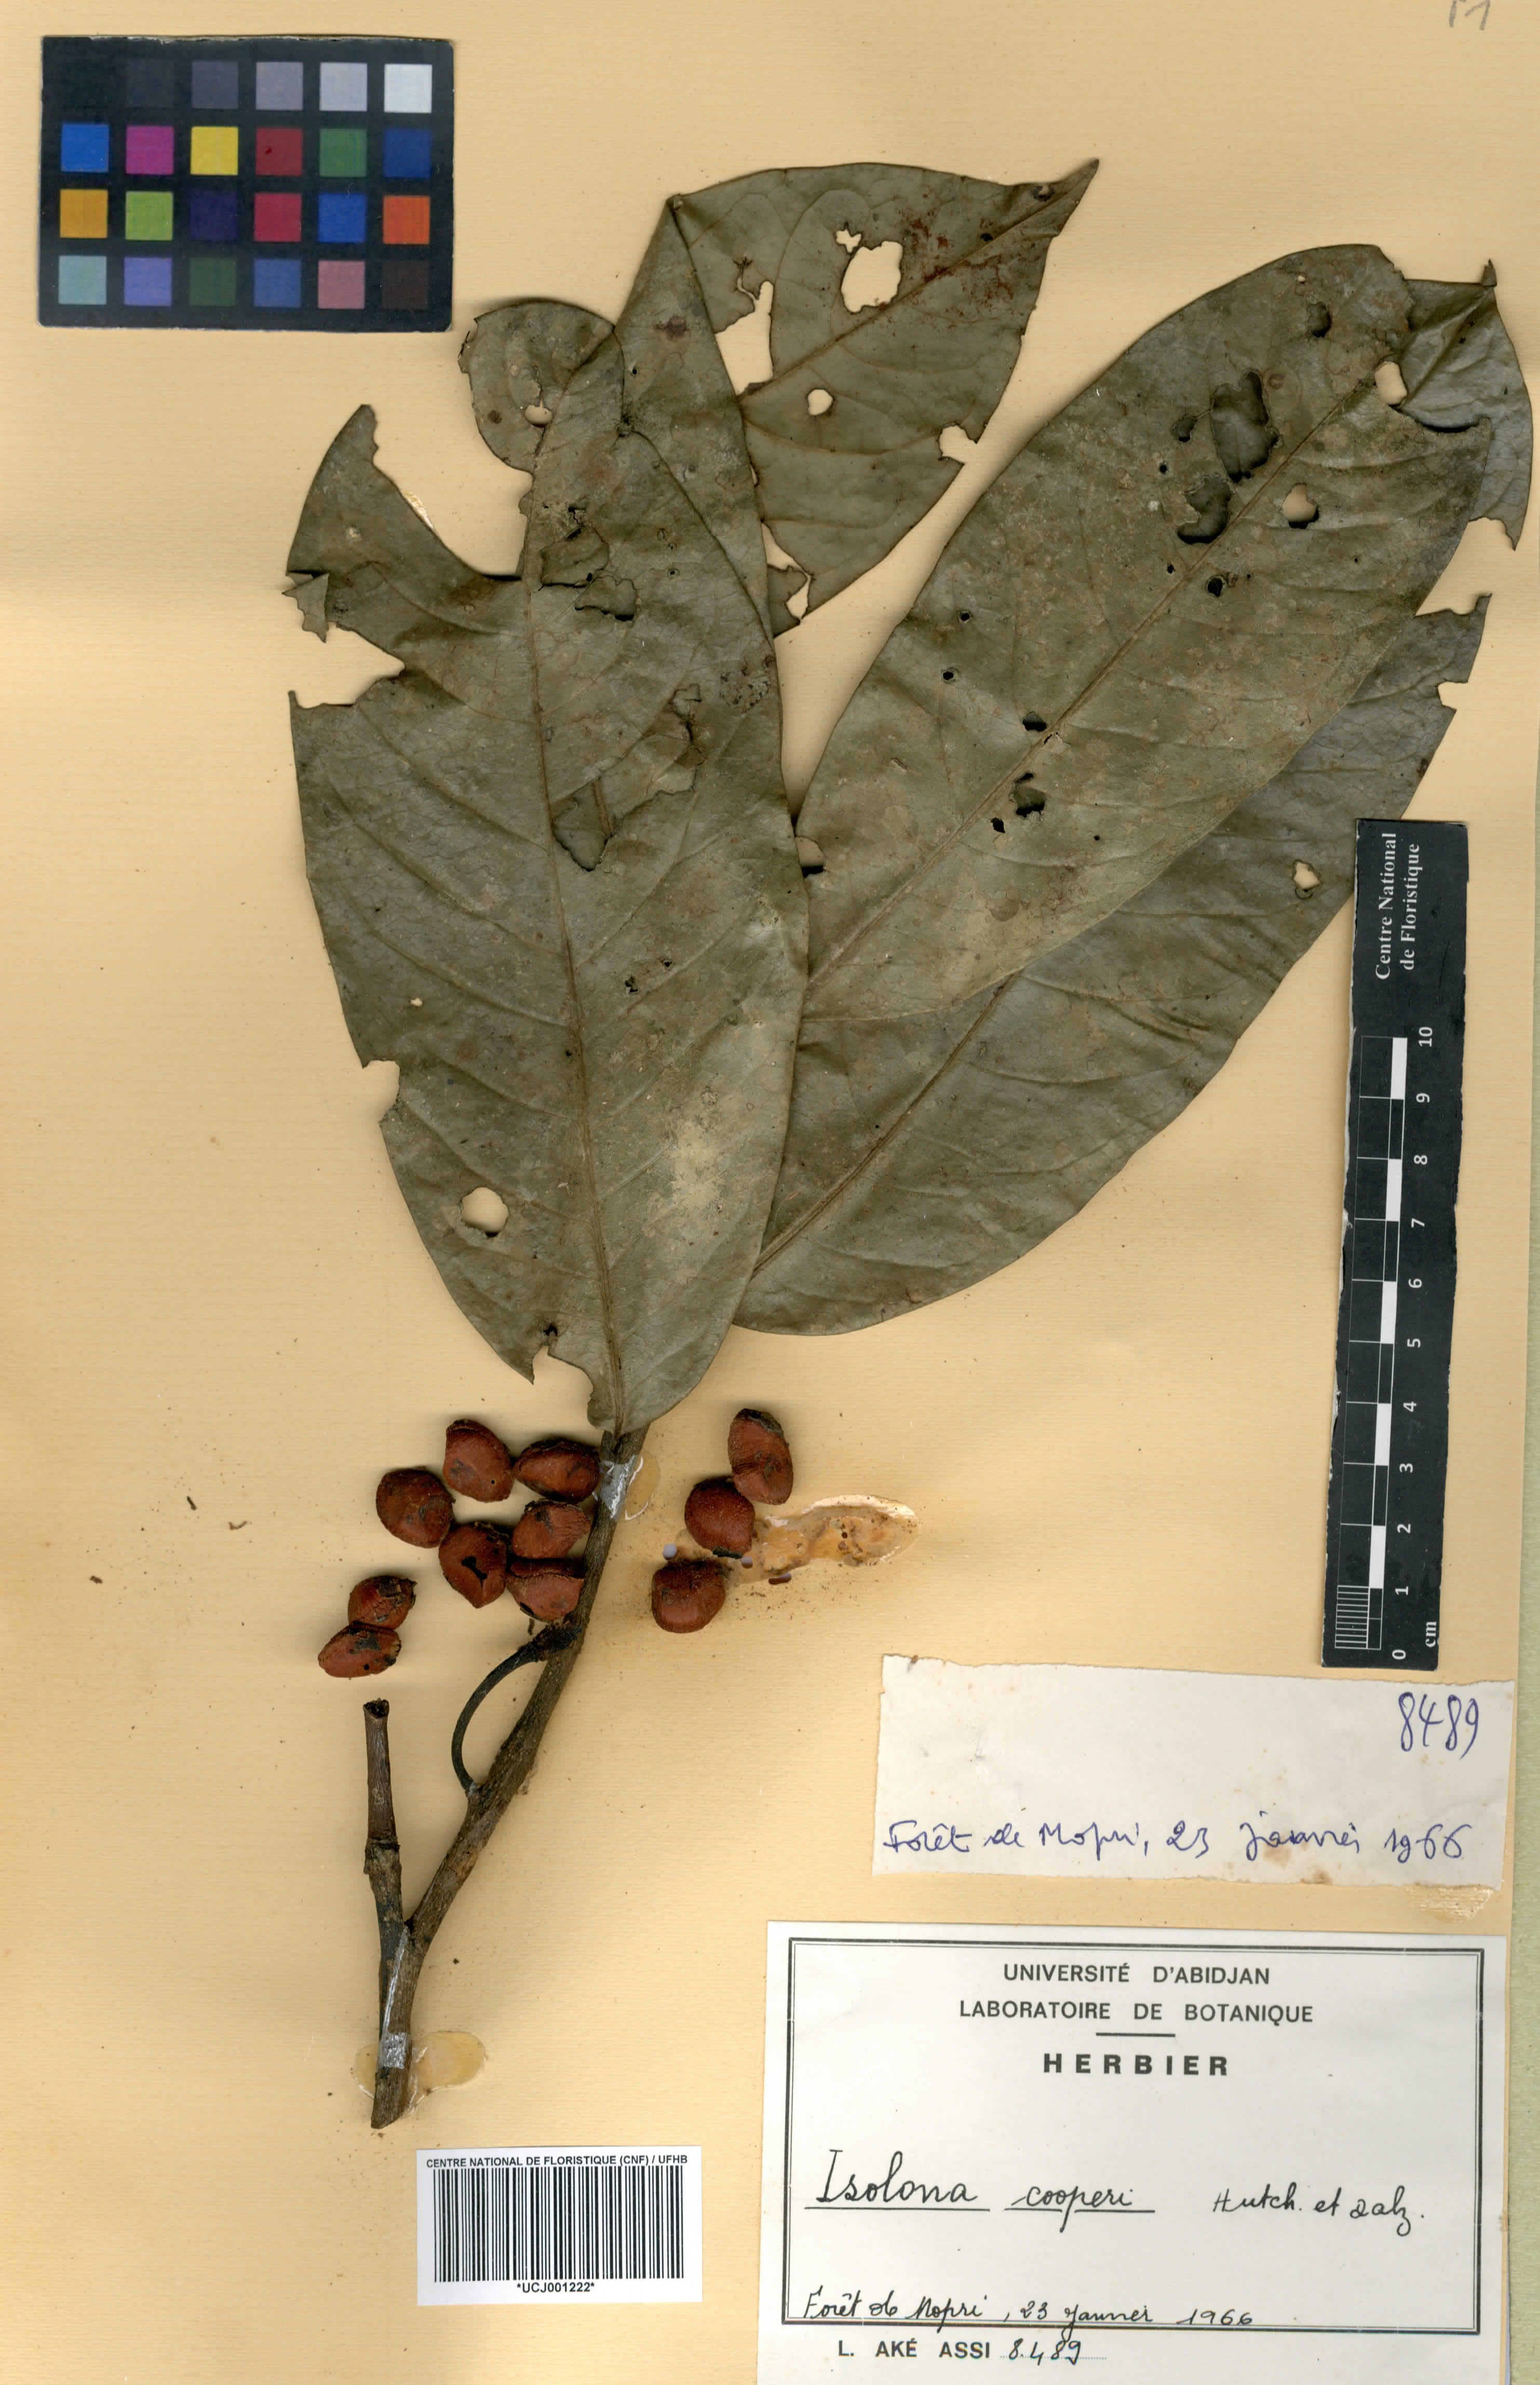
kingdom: Plantae
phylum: Tracheophyta
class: Magnoliopsida
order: Magnoliales
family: Annonaceae
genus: Isolona
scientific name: Isolona cooperi
